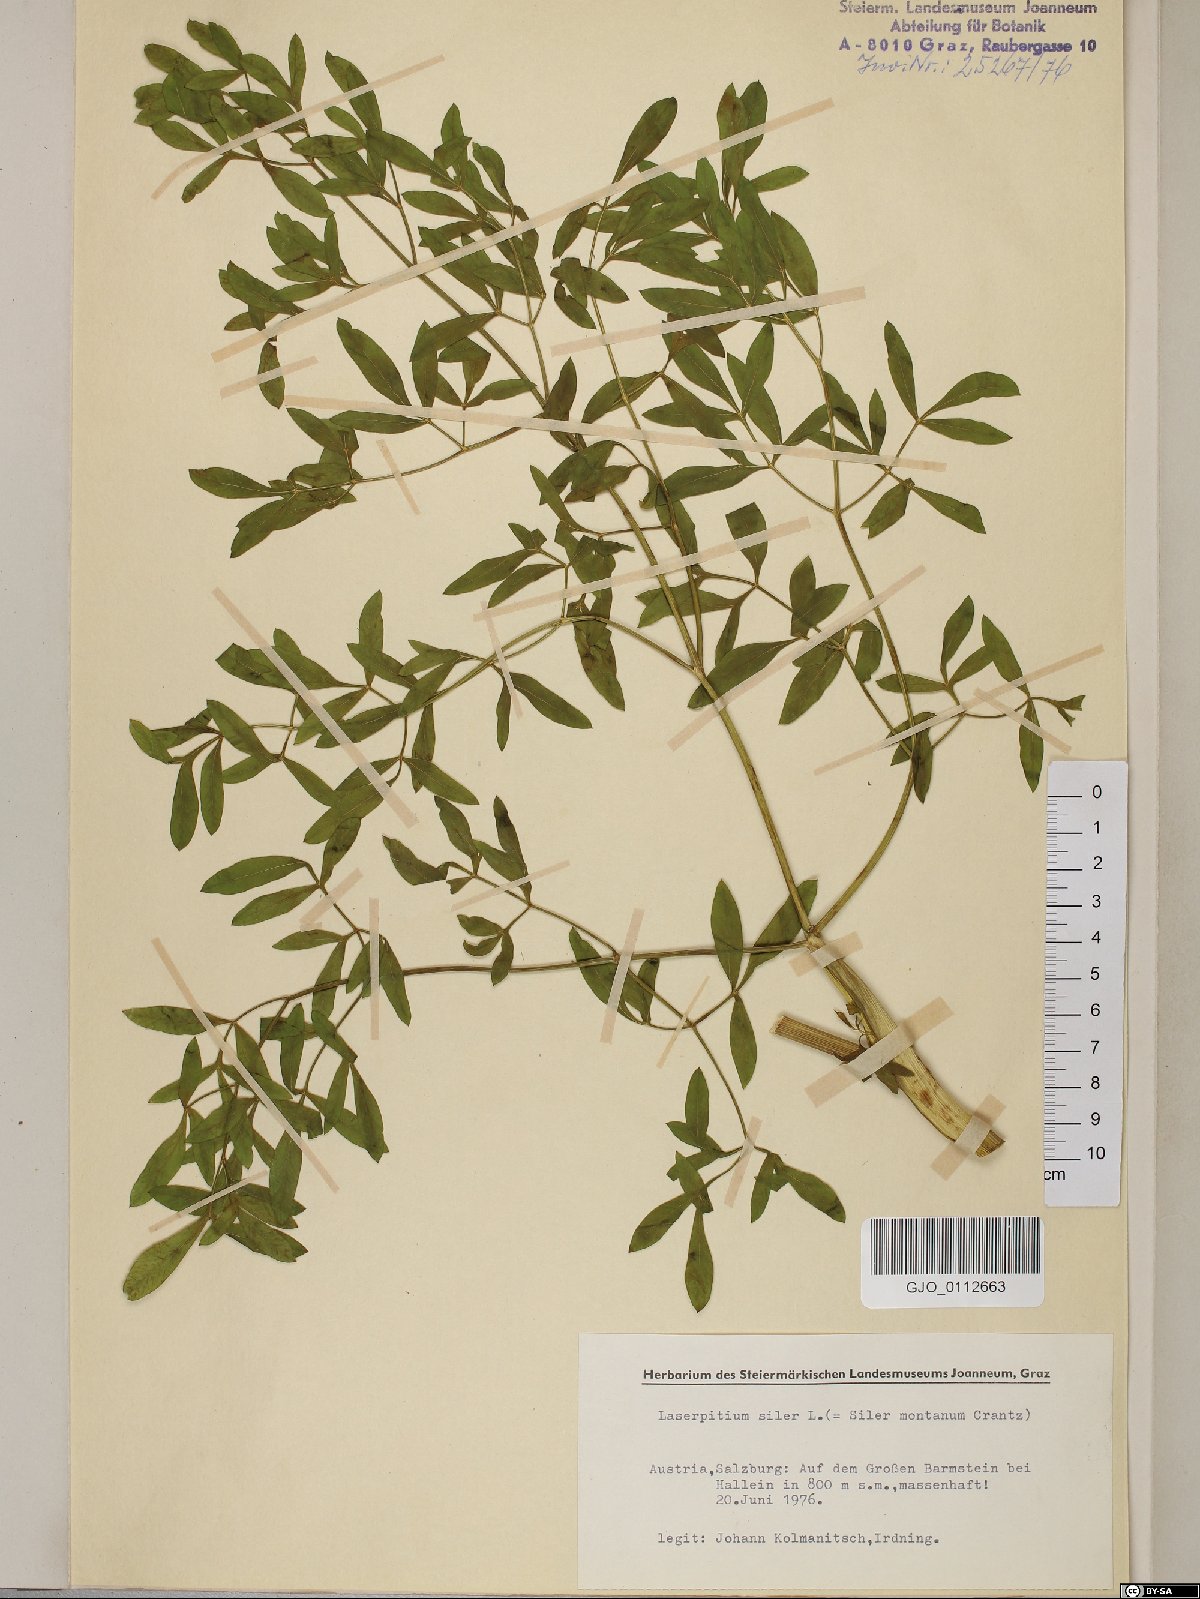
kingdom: Plantae
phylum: Tracheophyta
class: Magnoliopsida
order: Apiales
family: Apiaceae
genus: Siler
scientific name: Siler montanum
